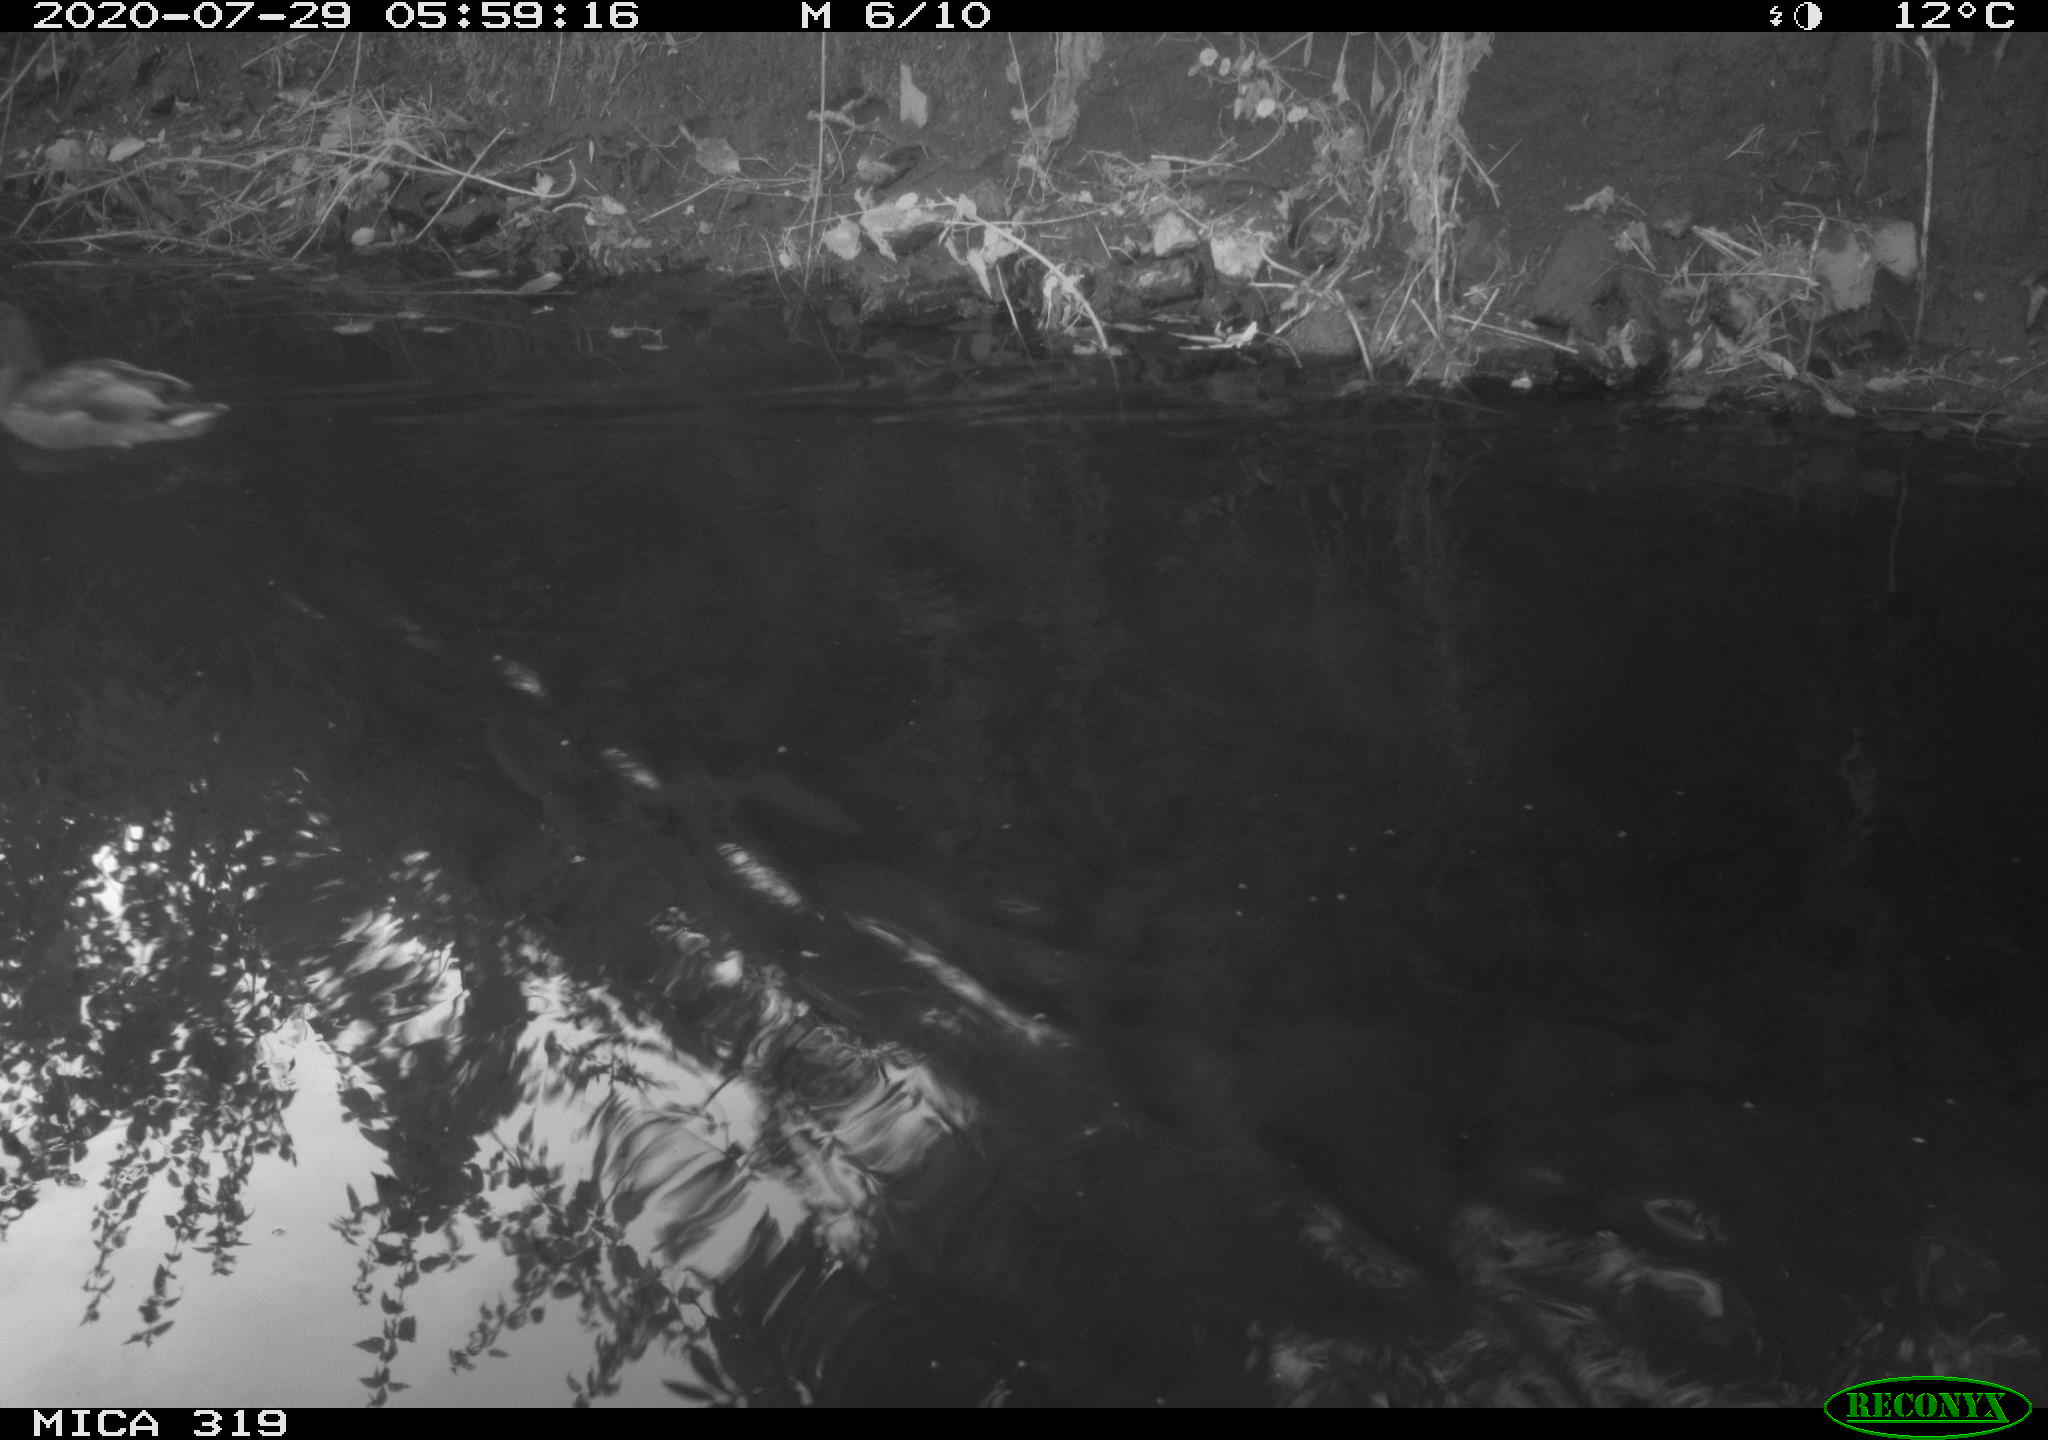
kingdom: Animalia
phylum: Chordata
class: Aves
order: Anseriformes
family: Anatidae
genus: Anas
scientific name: Anas platyrhynchos
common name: Mallard
